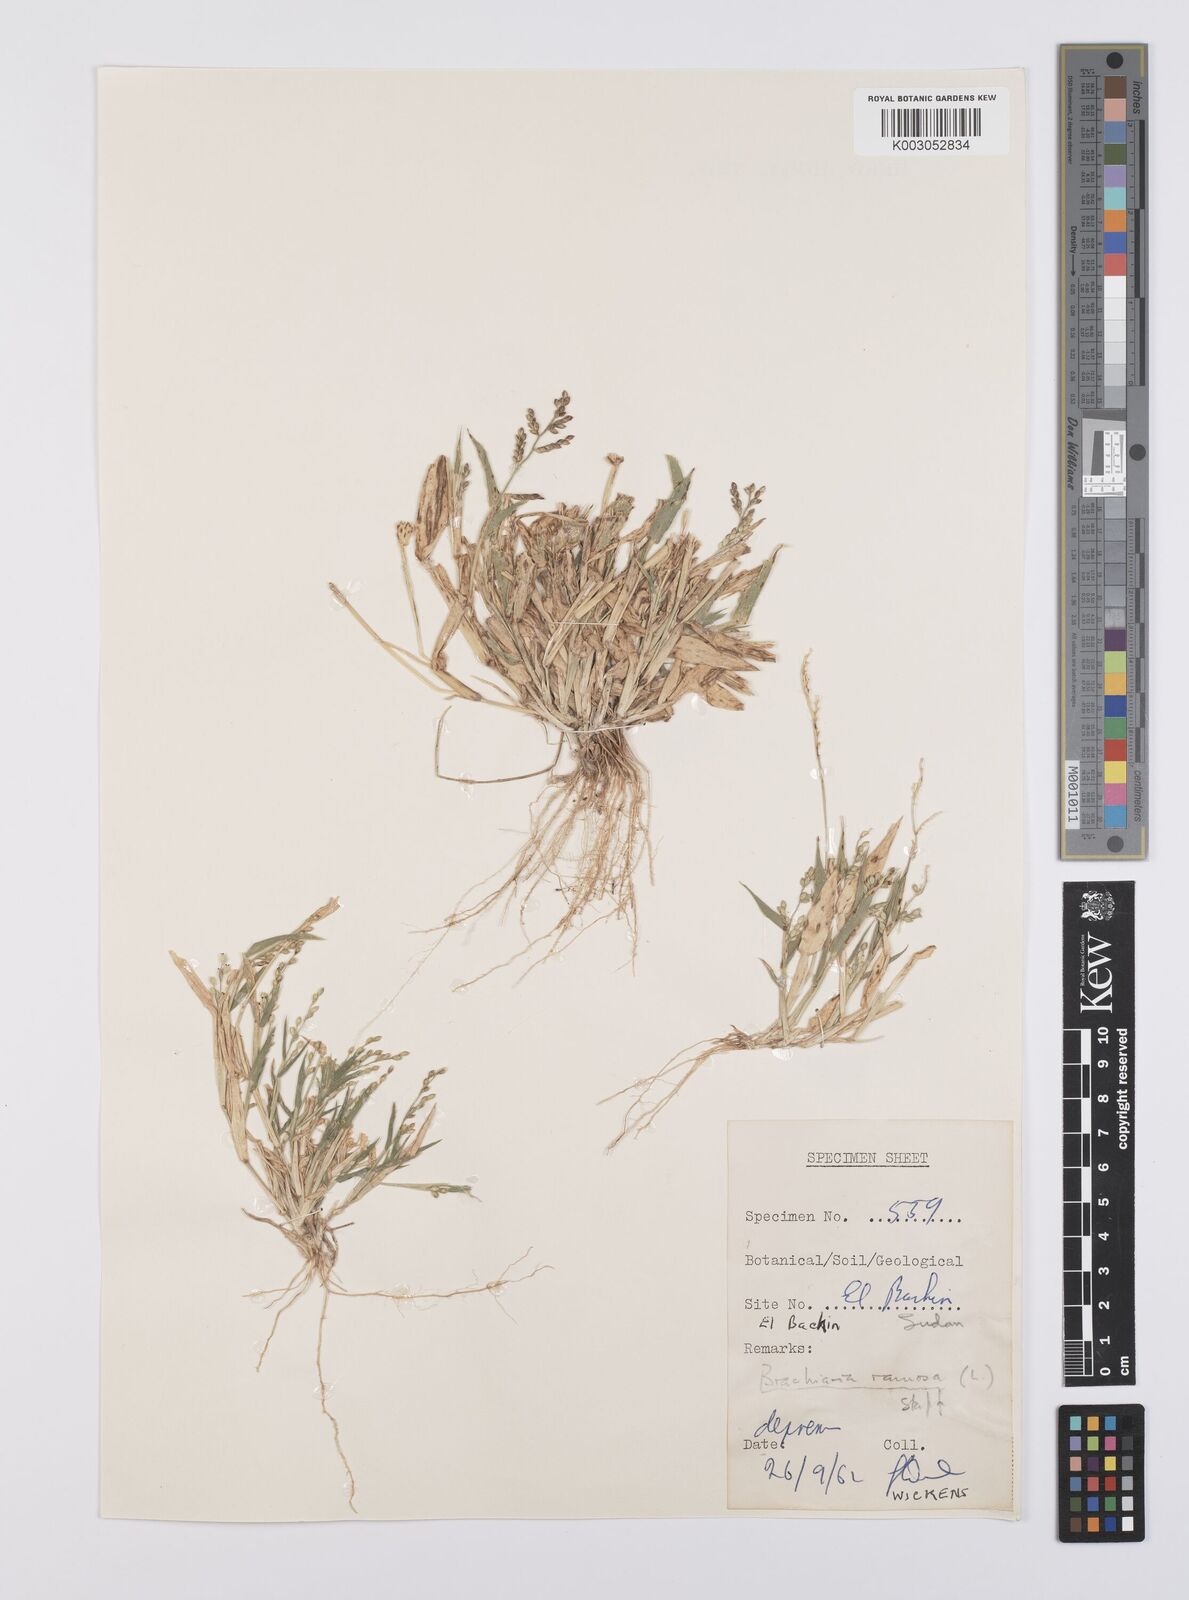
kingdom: Plantae
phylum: Tracheophyta
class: Liliopsida
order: Poales
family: Poaceae
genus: Urochloa
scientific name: Urochloa lata
